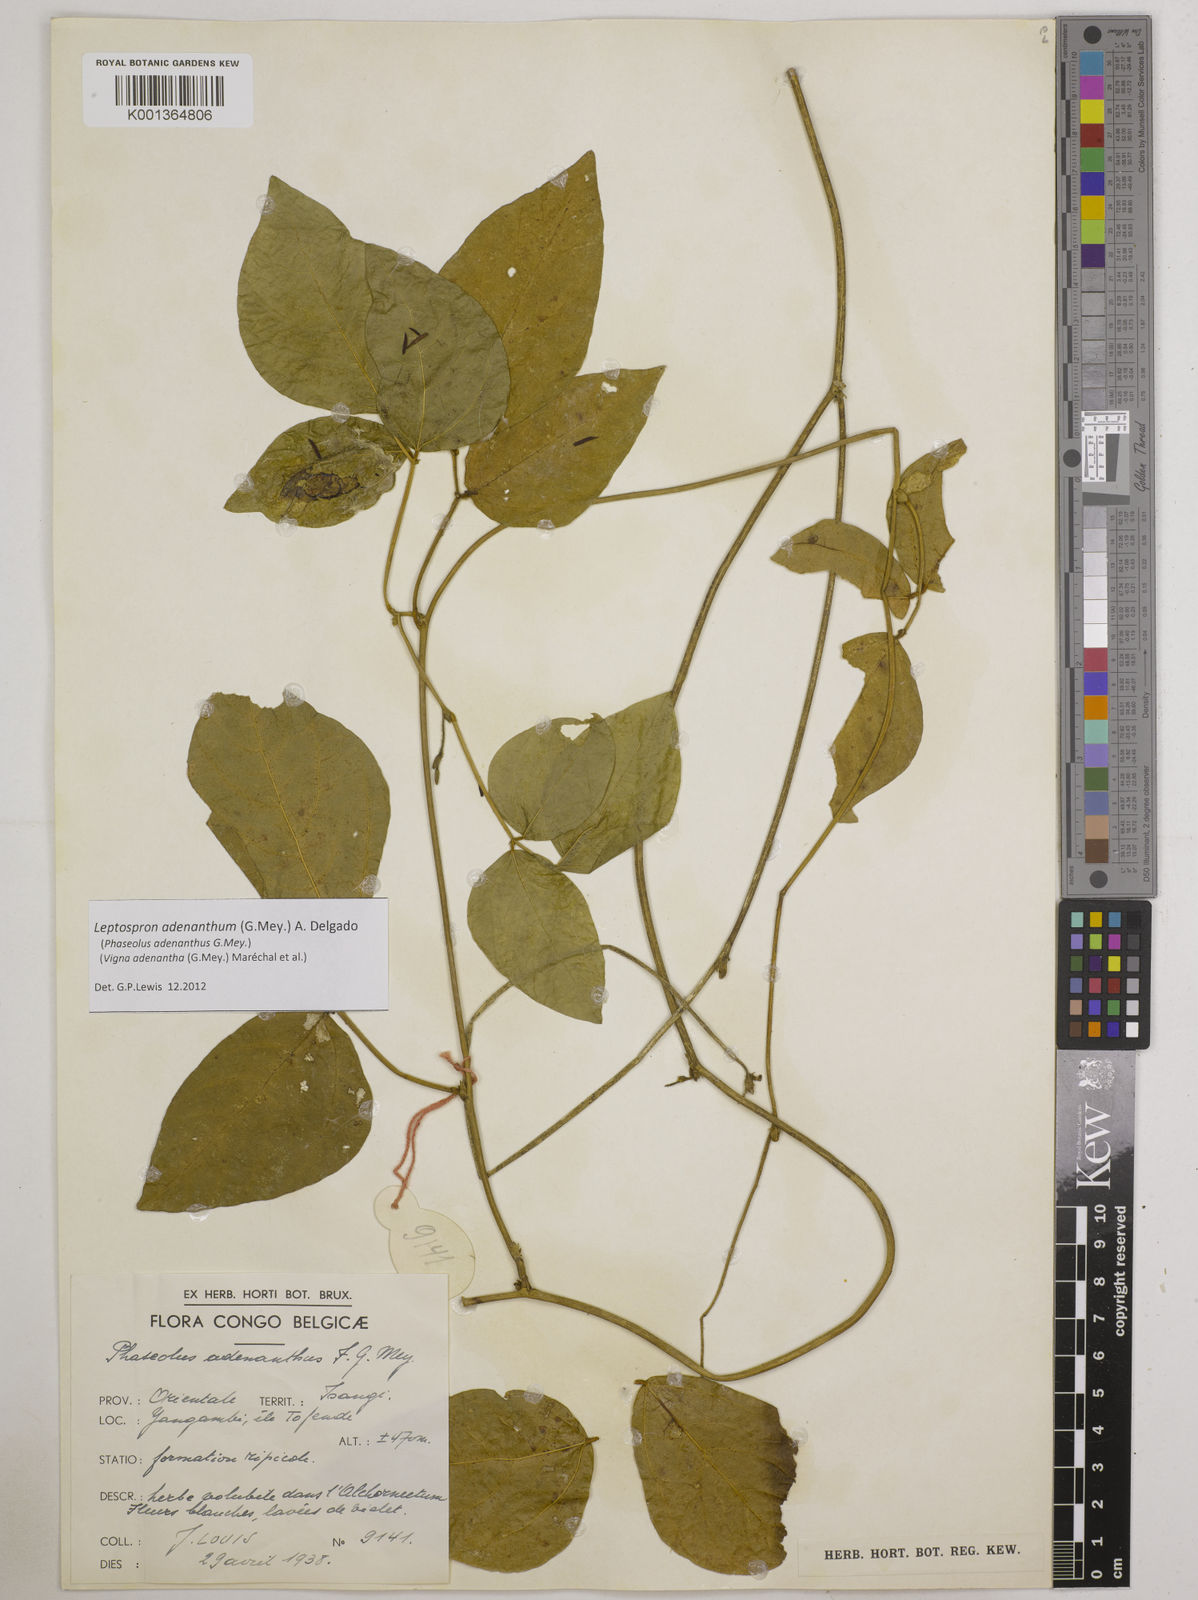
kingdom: Plantae
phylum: Tracheophyta
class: Magnoliopsida
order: Fabales
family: Fabaceae
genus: Leptospron
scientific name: Leptospron adenanthum
